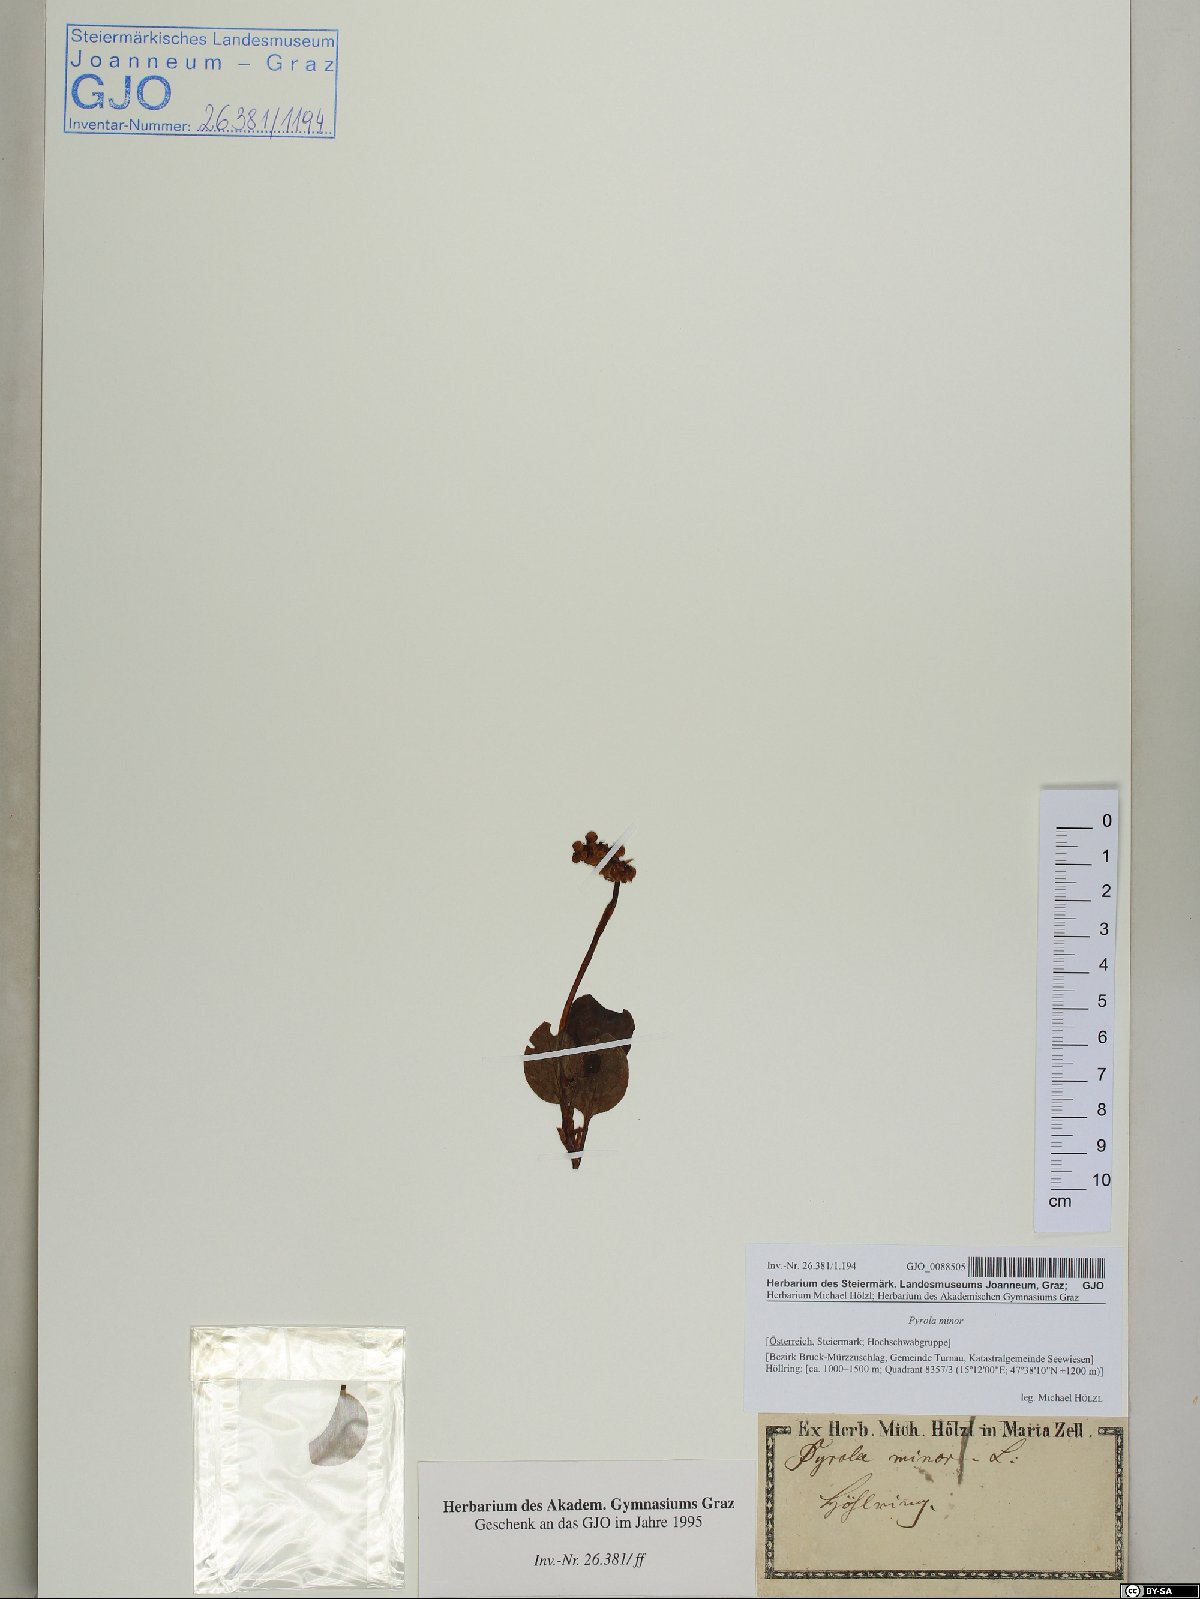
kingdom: Plantae
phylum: Tracheophyta
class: Magnoliopsida
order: Ericales
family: Ericaceae
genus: Pyrola
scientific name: Pyrola minor
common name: Common wintergreen
